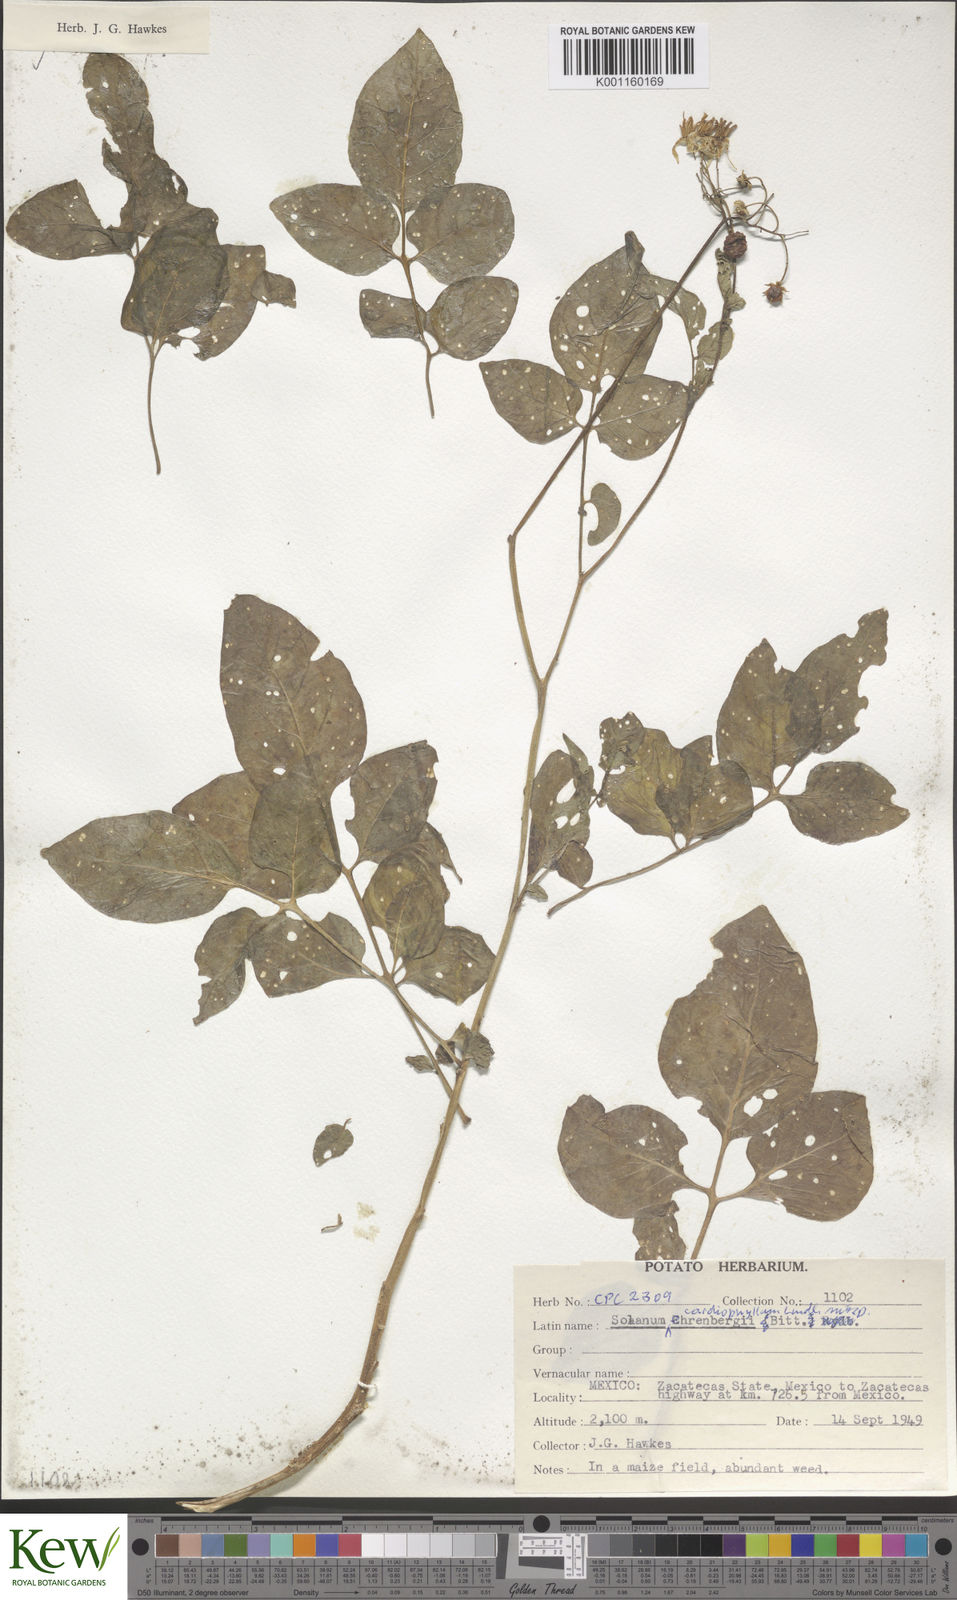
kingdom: Plantae
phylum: Tracheophyta
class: Magnoliopsida
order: Solanales
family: Solanaceae
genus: Solanum
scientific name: Solanum cardiophyllum
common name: Heartleaf horsenettle
